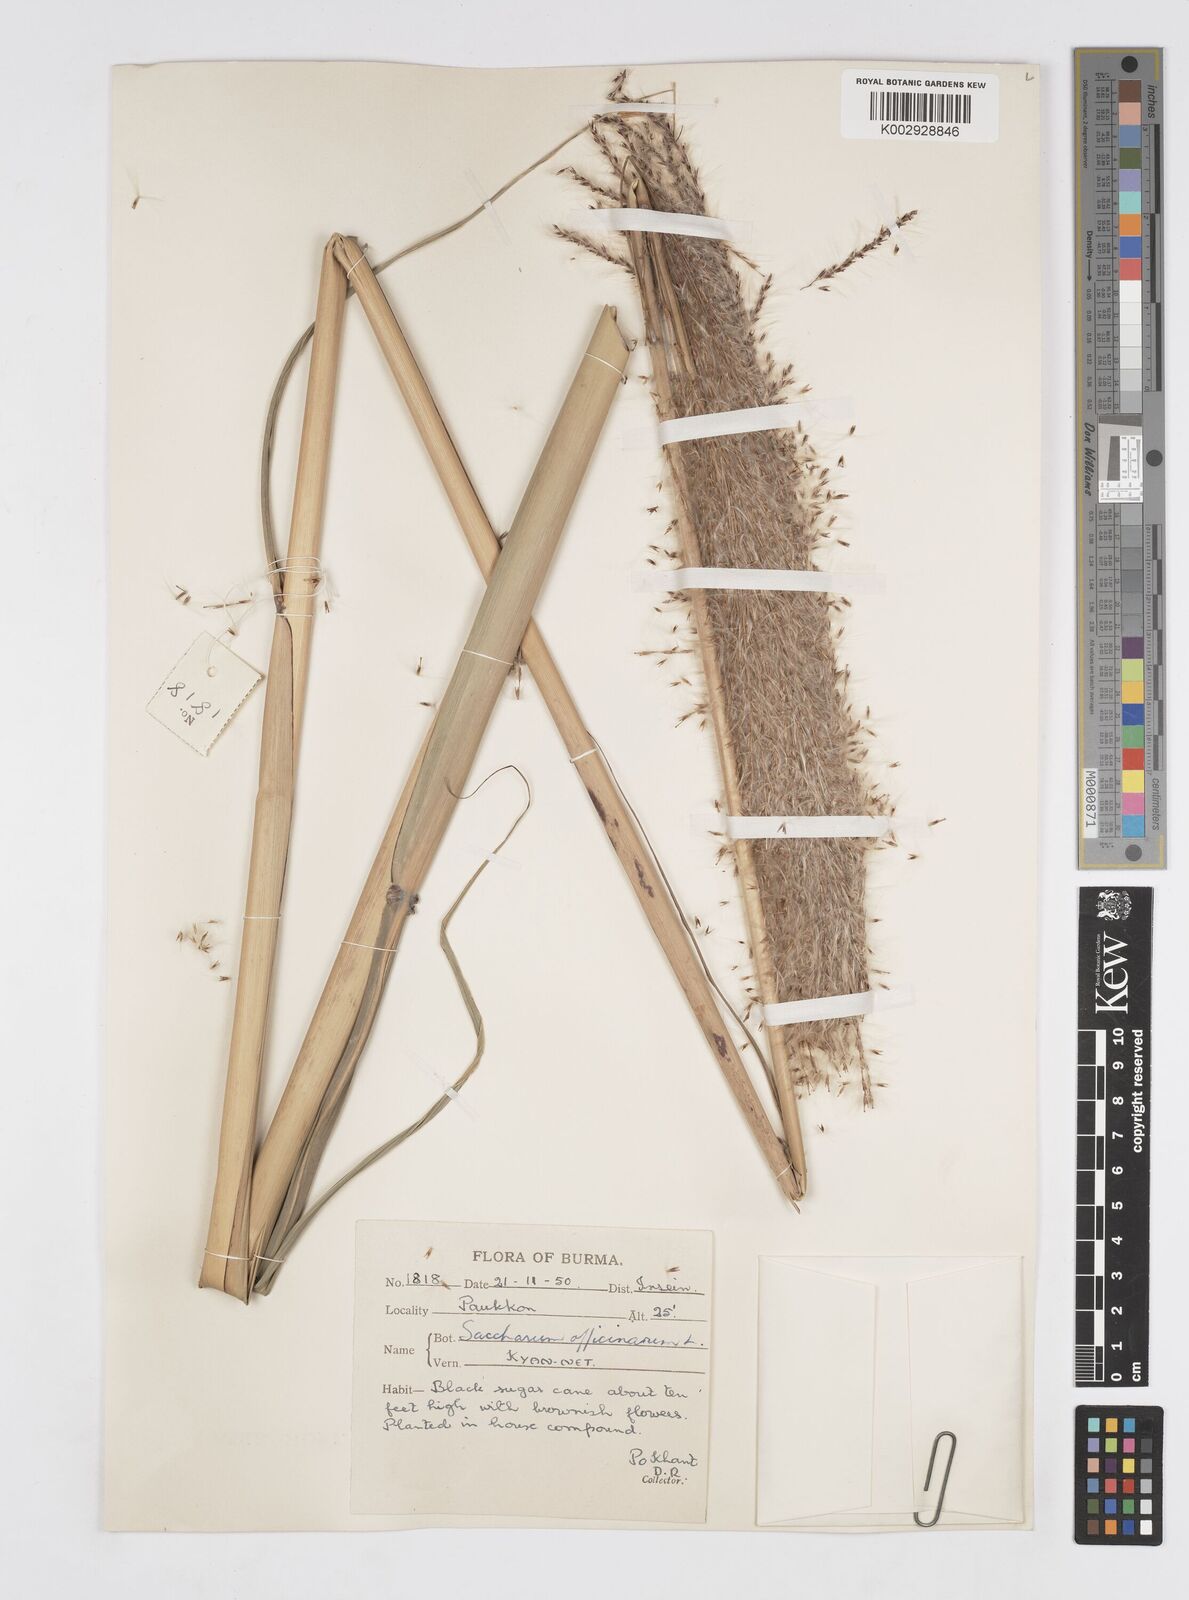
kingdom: Plantae
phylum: Tracheophyta
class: Liliopsida
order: Poales
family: Poaceae
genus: Saccharum
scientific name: Saccharum officinarum
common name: Sugarcane
